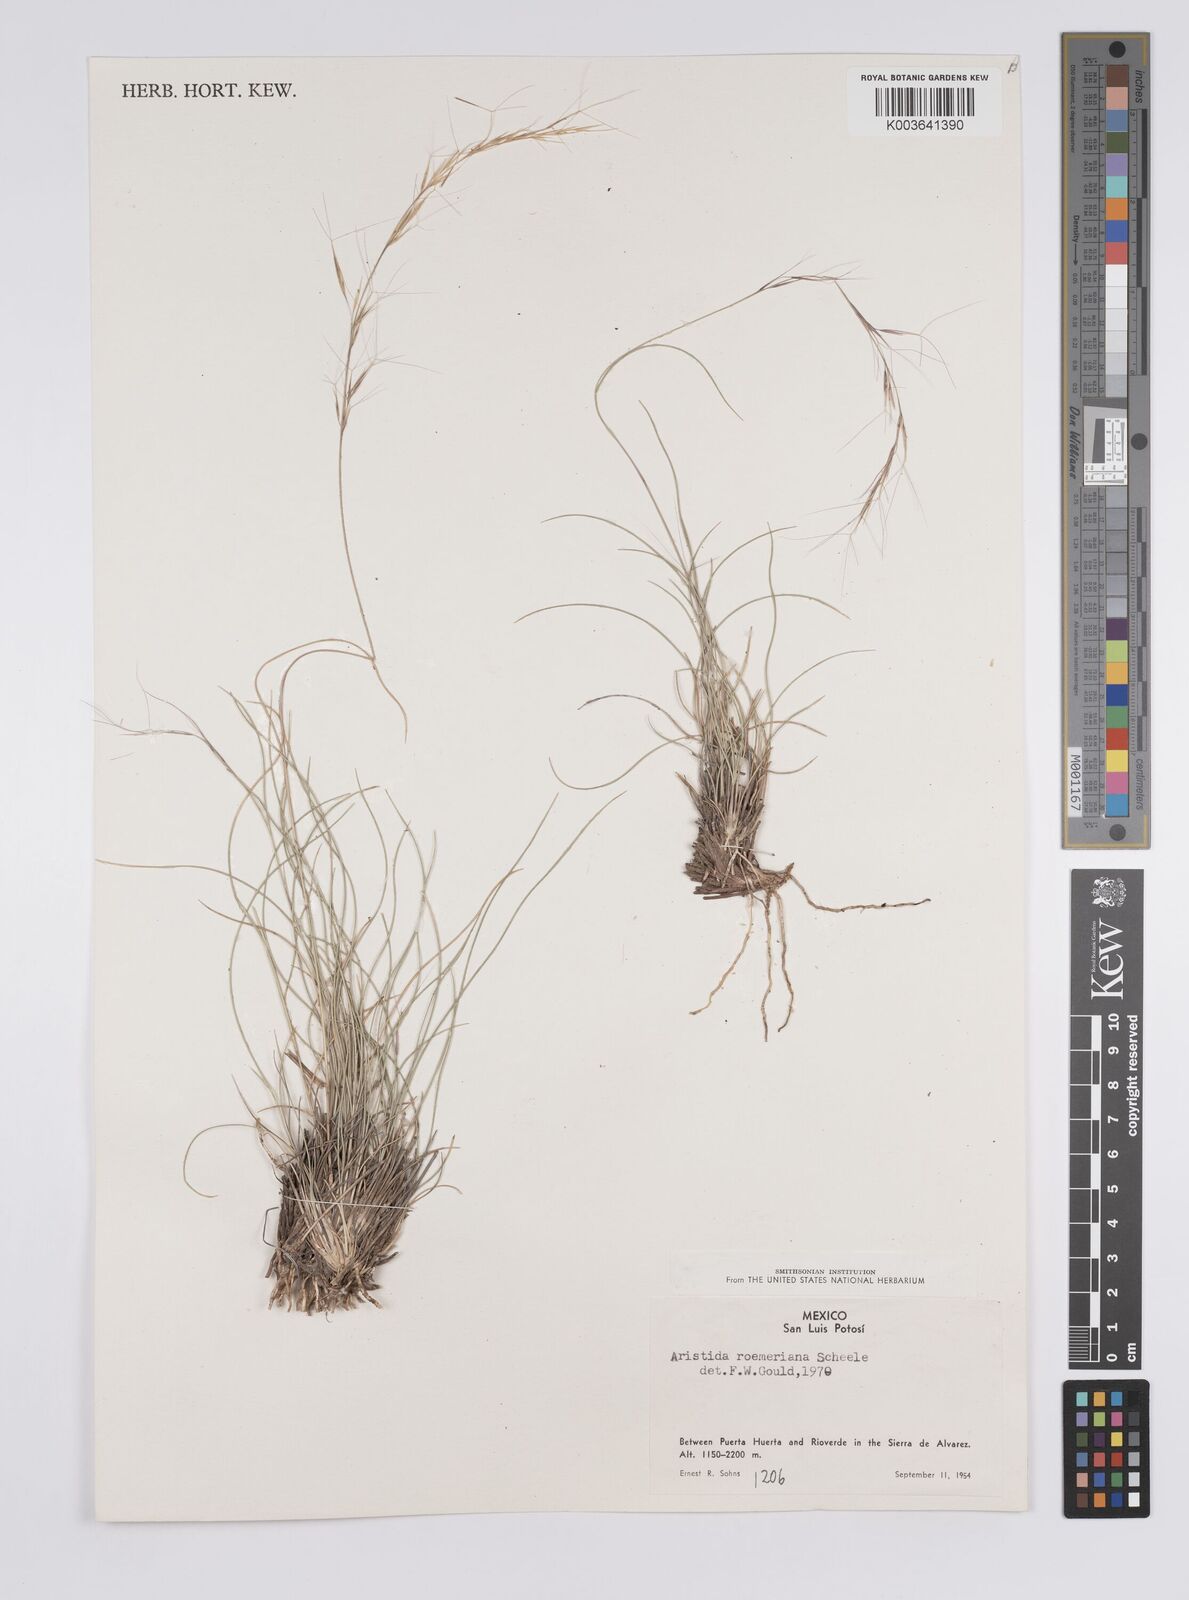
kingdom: Plantae
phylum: Tracheophyta
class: Liliopsida
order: Poales
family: Poaceae
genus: Aristida
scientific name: Aristida purpurea
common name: Purple threeawn
